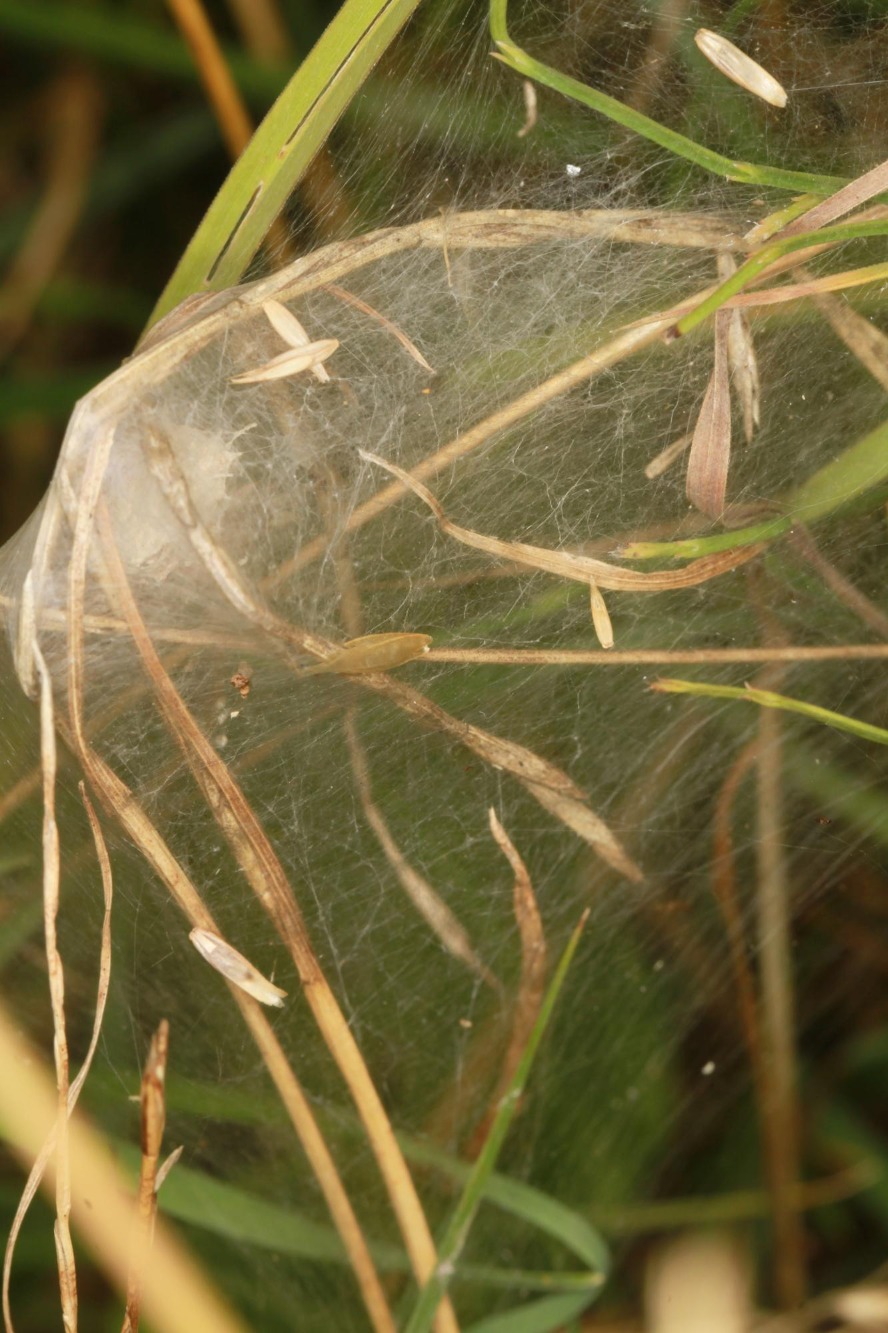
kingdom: Animalia
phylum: Arthropoda
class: Arachnida
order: Araneae
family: Pisauridae
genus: Pisaura
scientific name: Pisaura mirabilis
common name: Almindelig rovedderkop
